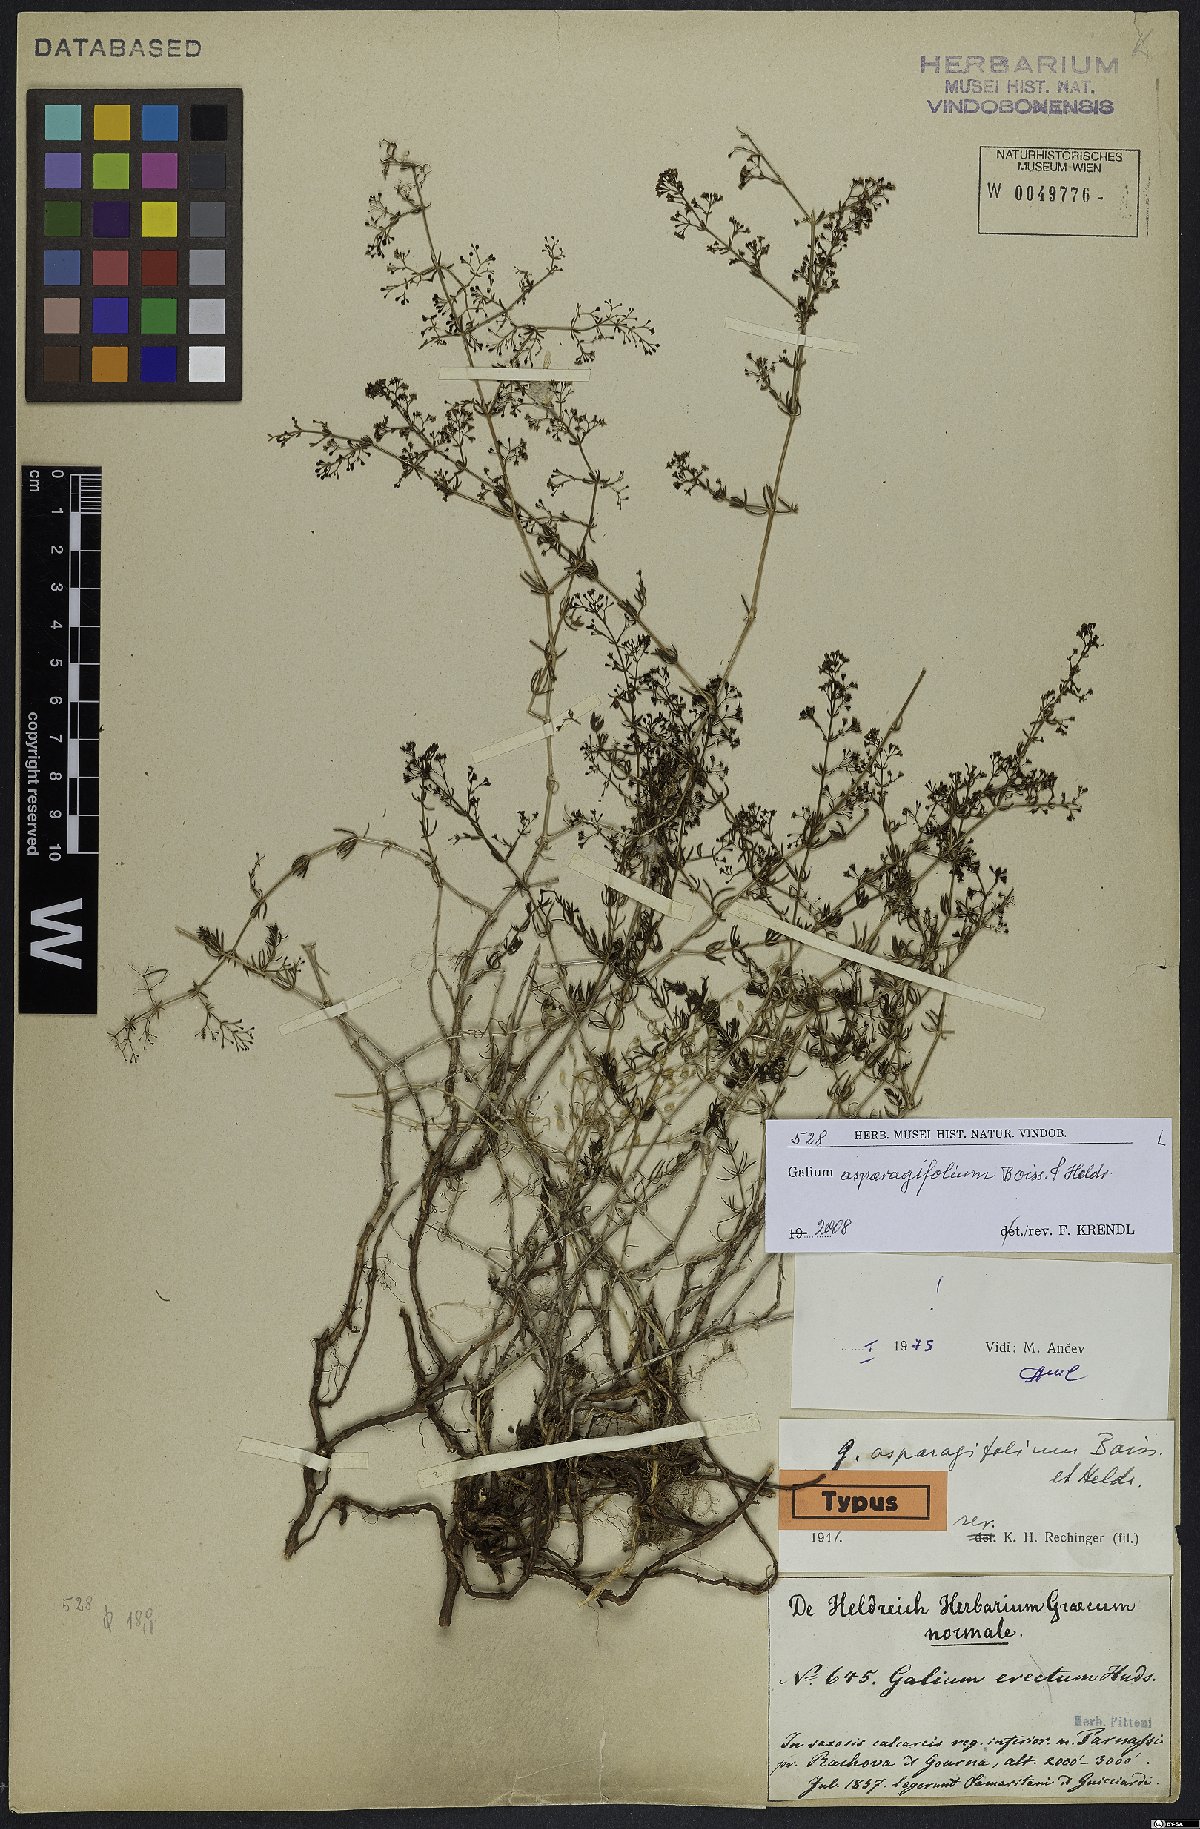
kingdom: Plantae
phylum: Tracheophyta
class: Magnoliopsida
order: Gentianales
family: Rubiaceae
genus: Galium
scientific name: Galium asparagifolium
